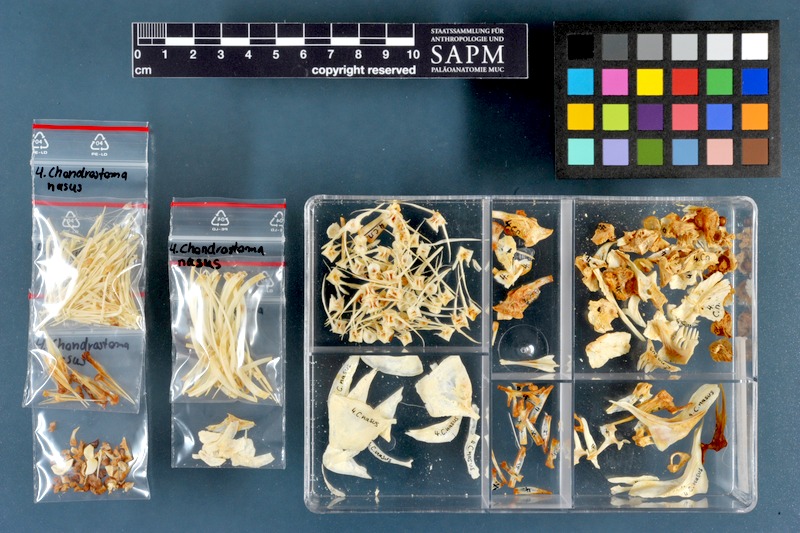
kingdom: Animalia
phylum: Chordata
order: Cypriniformes
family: Cyprinidae
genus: Chondrostoma
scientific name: Chondrostoma nasus
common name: Nase
